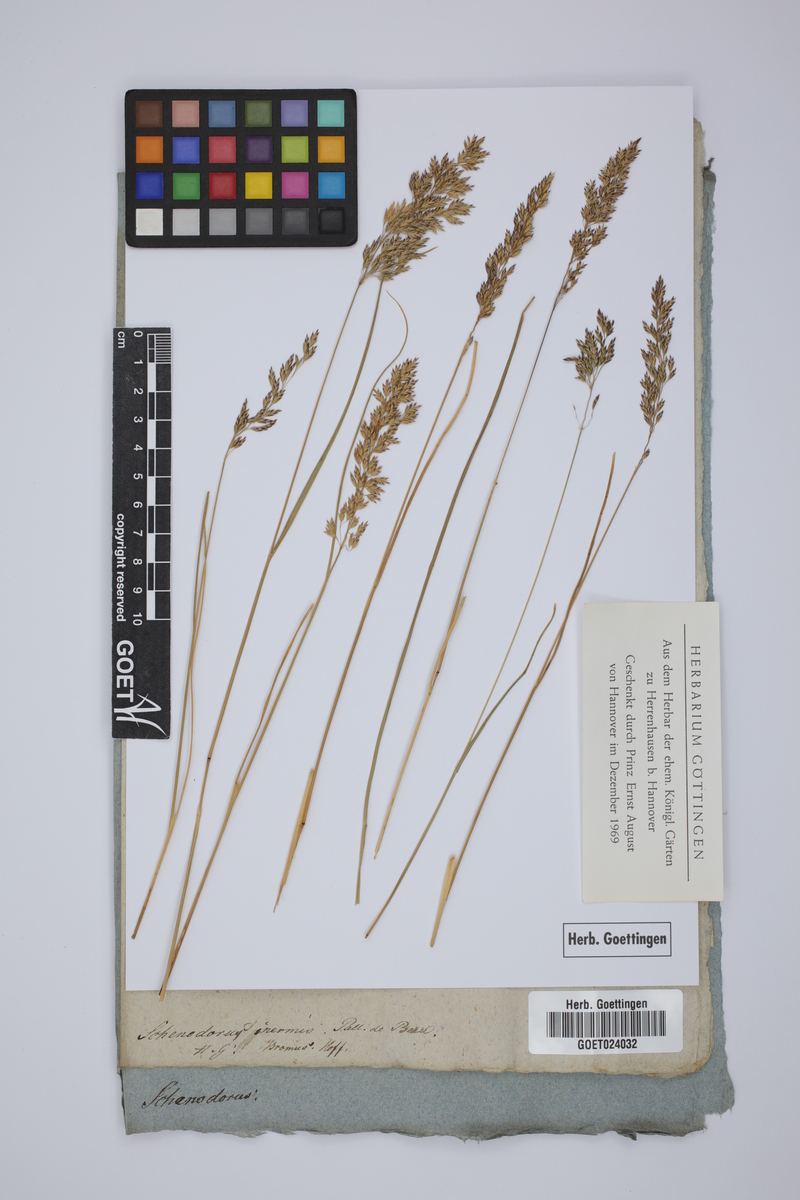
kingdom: Plantae
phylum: Tracheophyta
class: Liliopsida
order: Poales
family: Poaceae
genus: Bromus
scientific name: Bromus inermis
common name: Smooth brome
